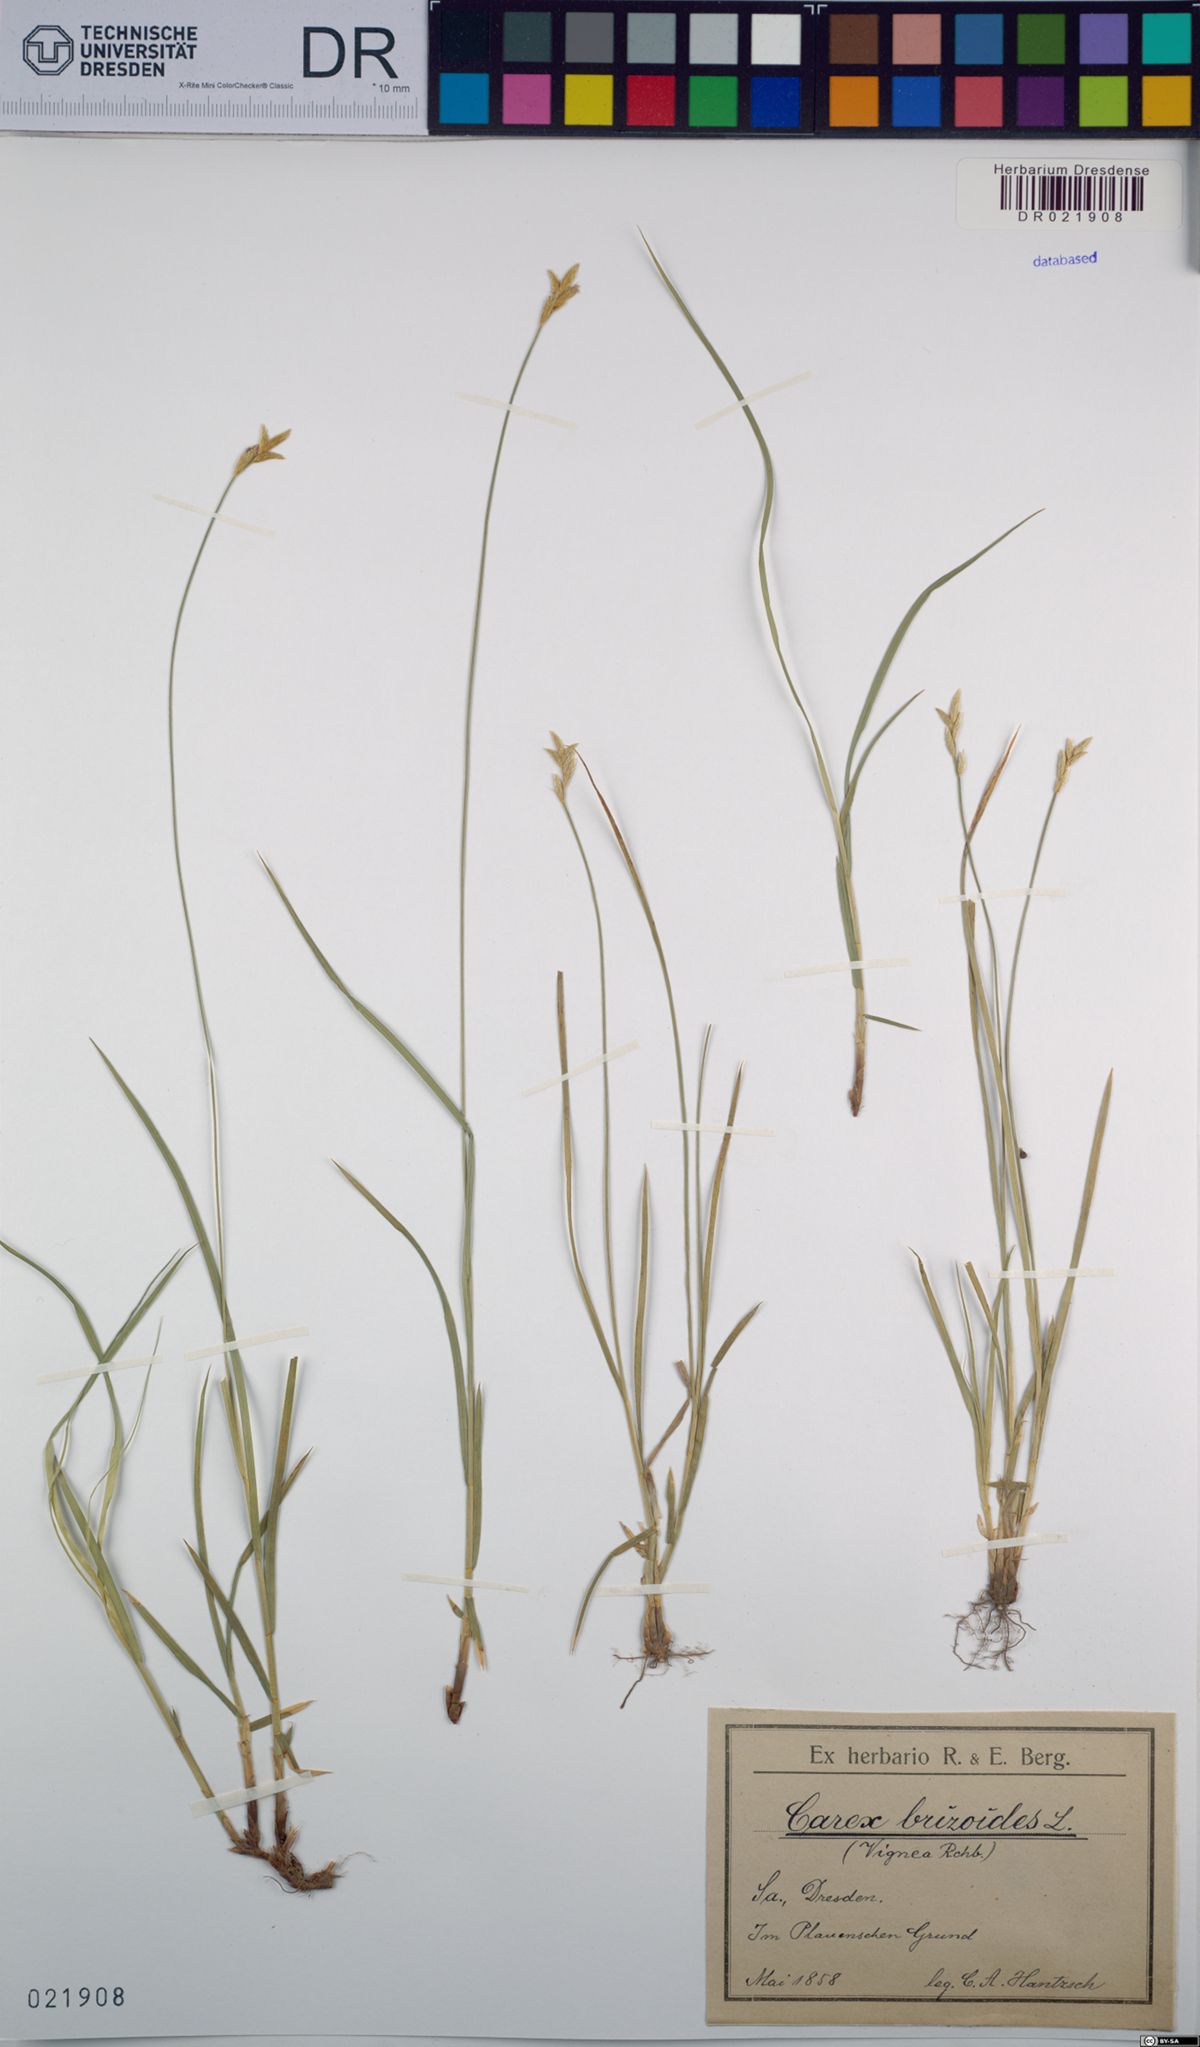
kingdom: Plantae
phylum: Tracheophyta
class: Liliopsida
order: Poales
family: Cyperaceae
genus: Carex
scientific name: Carex brizoides
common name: Quaking-grass sedge
